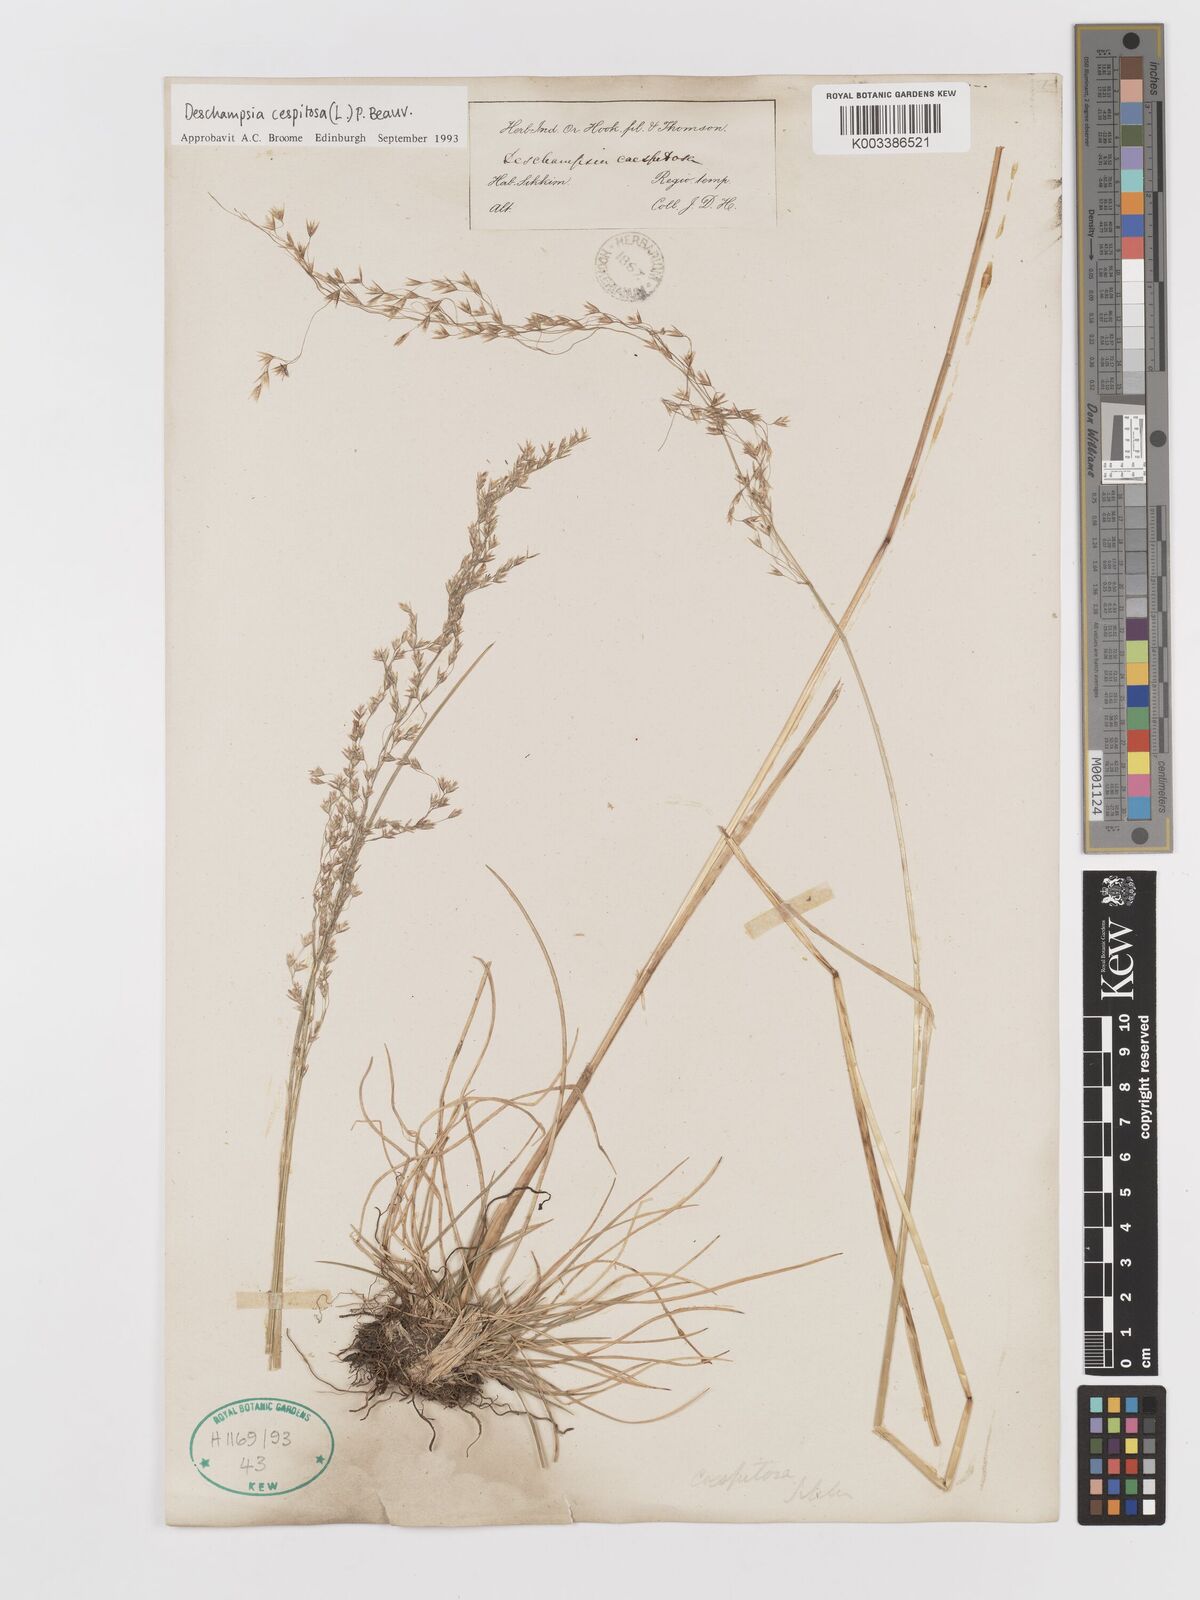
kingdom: Plantae
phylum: Tracheophyta
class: Liliopsida
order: Poales
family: Poaceae
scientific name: Poaceae
